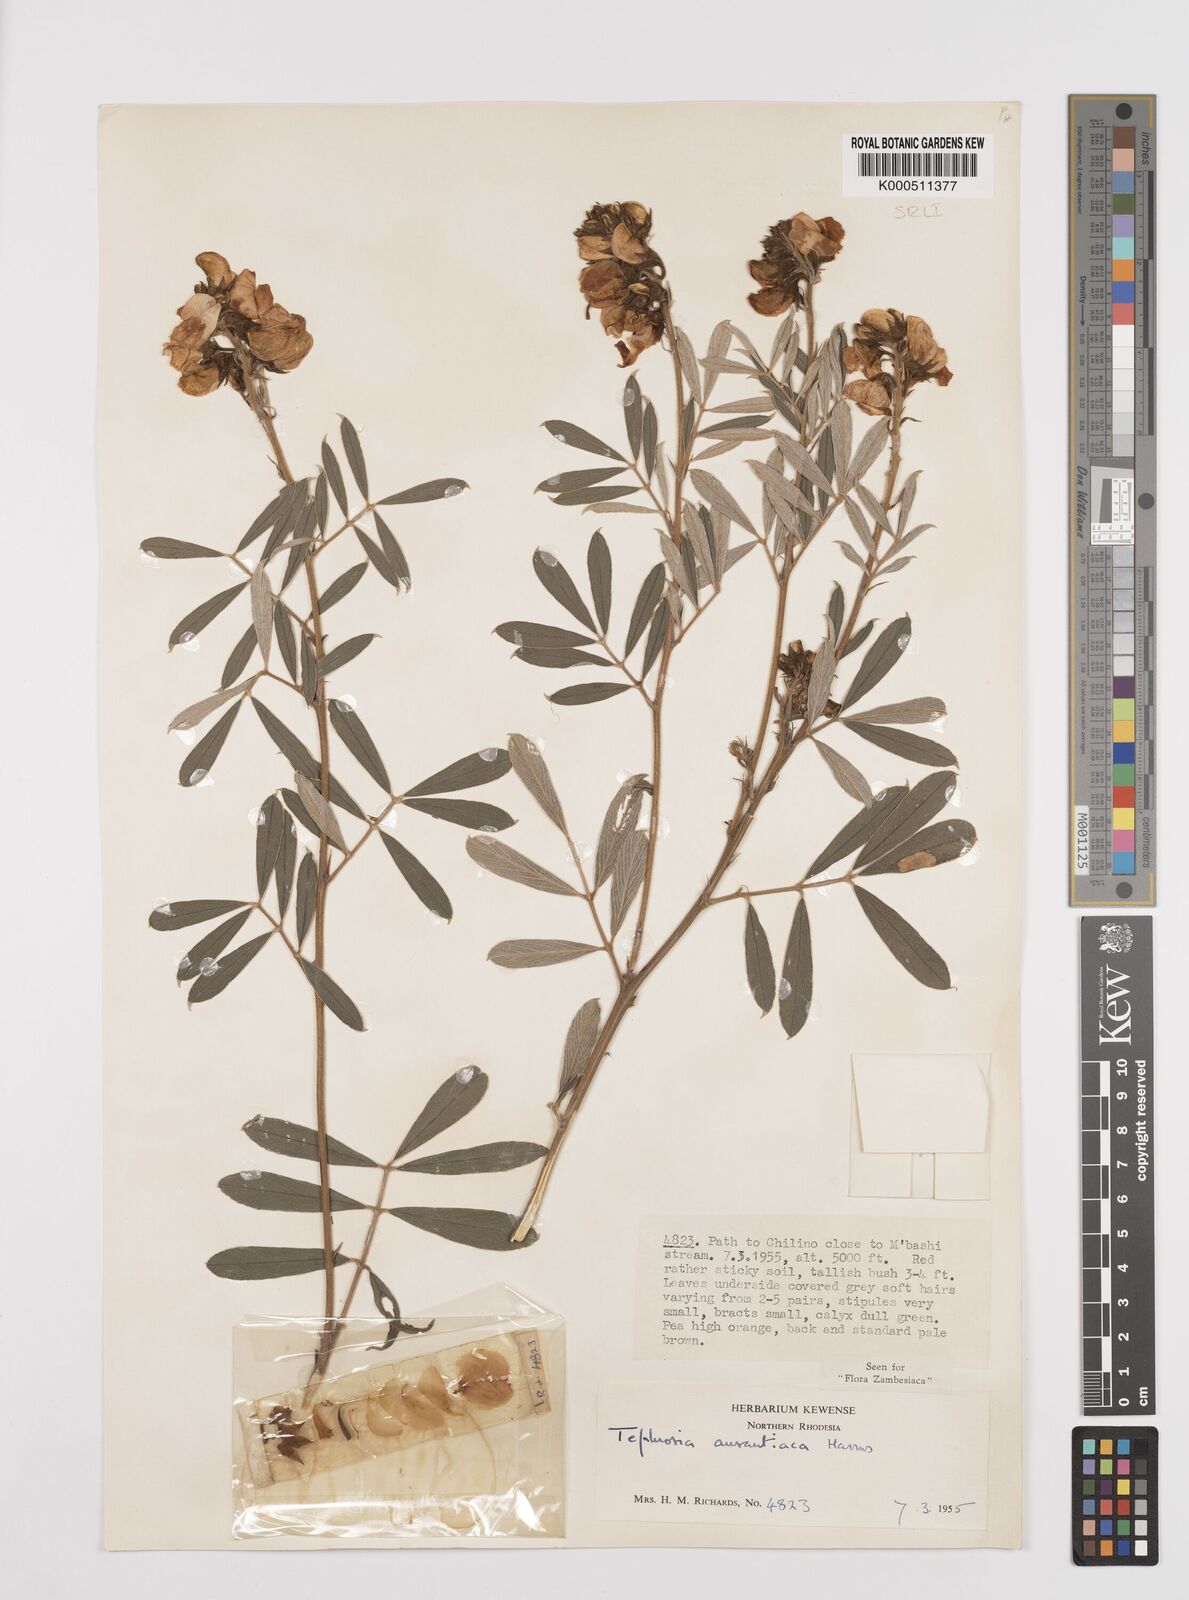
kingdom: Plantae
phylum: Tracheophyta
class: Magnoliopsida
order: Fabales
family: Fabaceae
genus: Tephrosia
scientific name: Tephrosia aurantiaca
